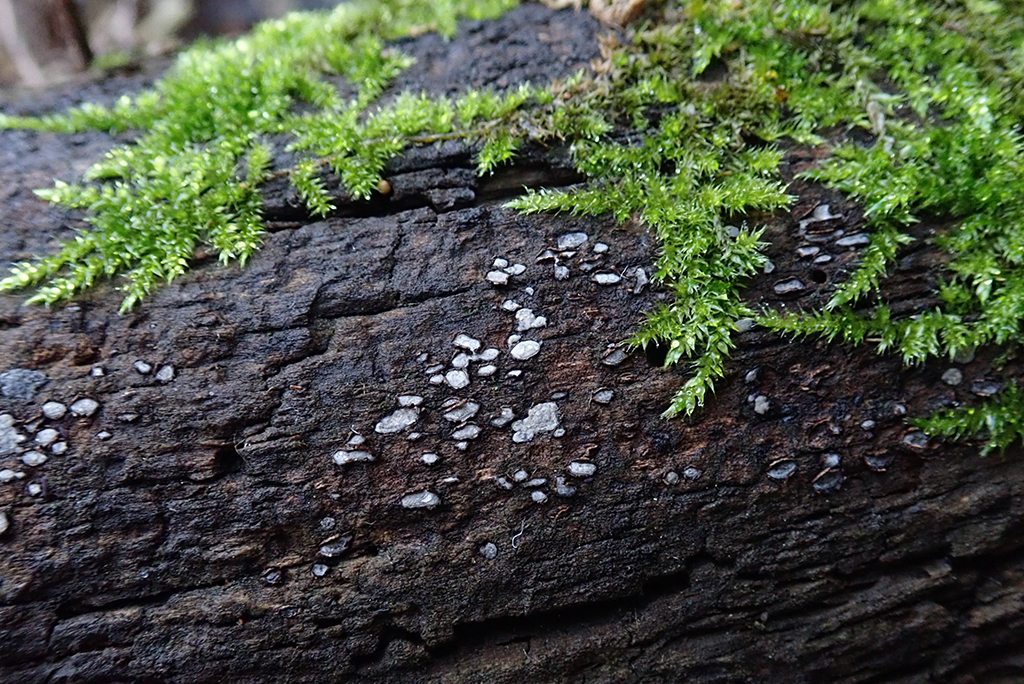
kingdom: Fungi
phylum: Ascomycota
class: Leotiomycetes
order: Chaetomellales
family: Marthamycetaceae
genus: Propolis
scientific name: Propolis farinosa
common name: almindelig vedsprængerskive
